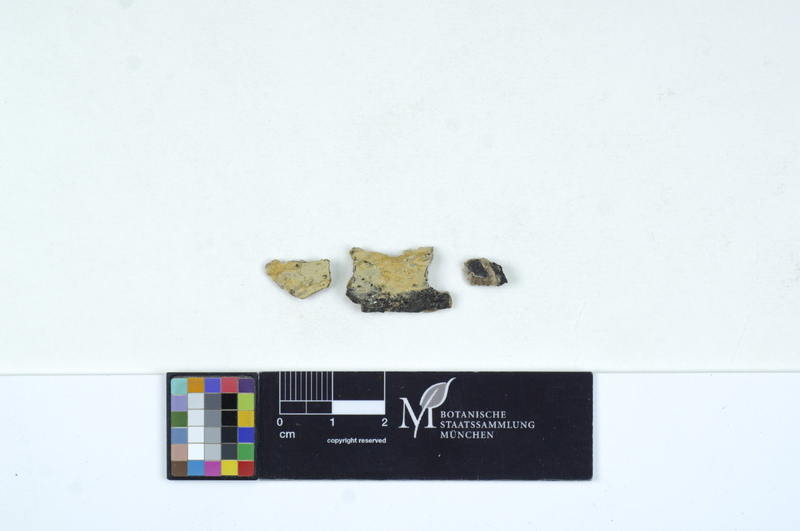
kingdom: Plantae
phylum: Tracheophyta
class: Magnoliopsida
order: Lamiales
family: Oleaceae
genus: Fraxinus
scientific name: Fraxinus
